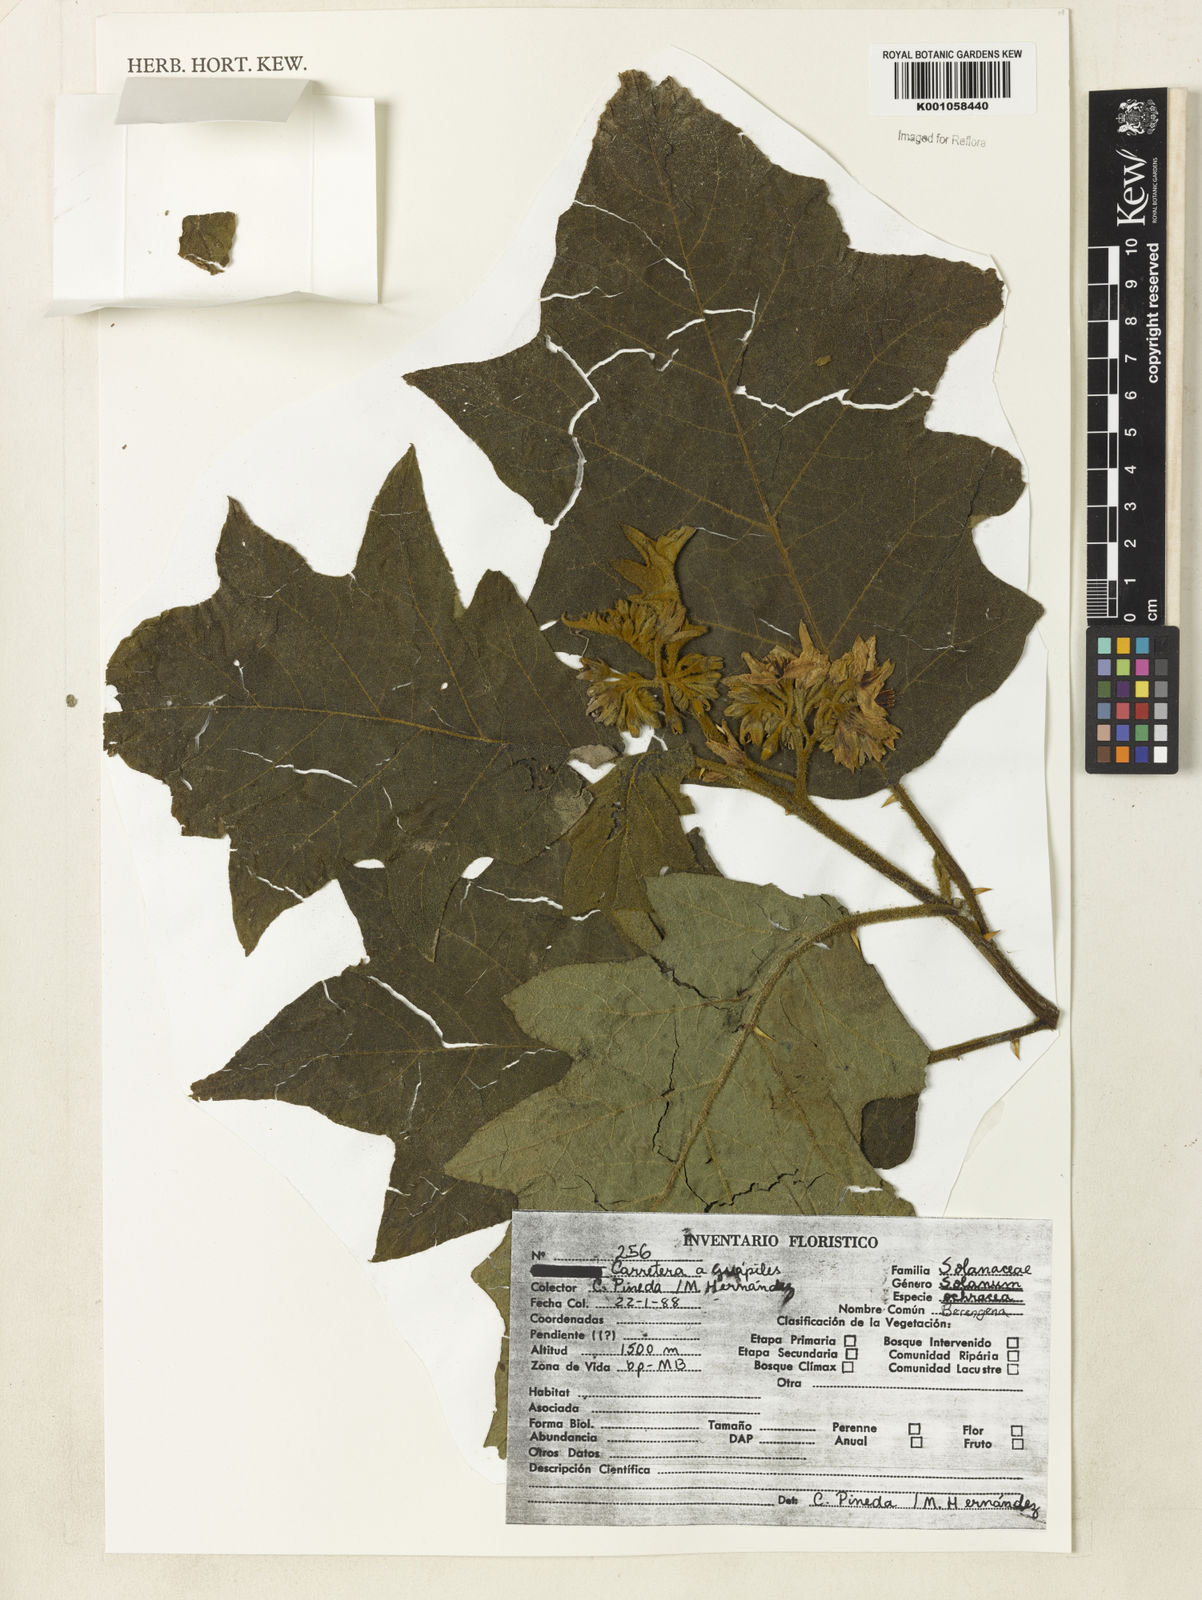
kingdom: Plantae
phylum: Tracheophyta
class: Magnoliopsida
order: Solanales
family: Solanaceae
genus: Solanum
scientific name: Solanum
